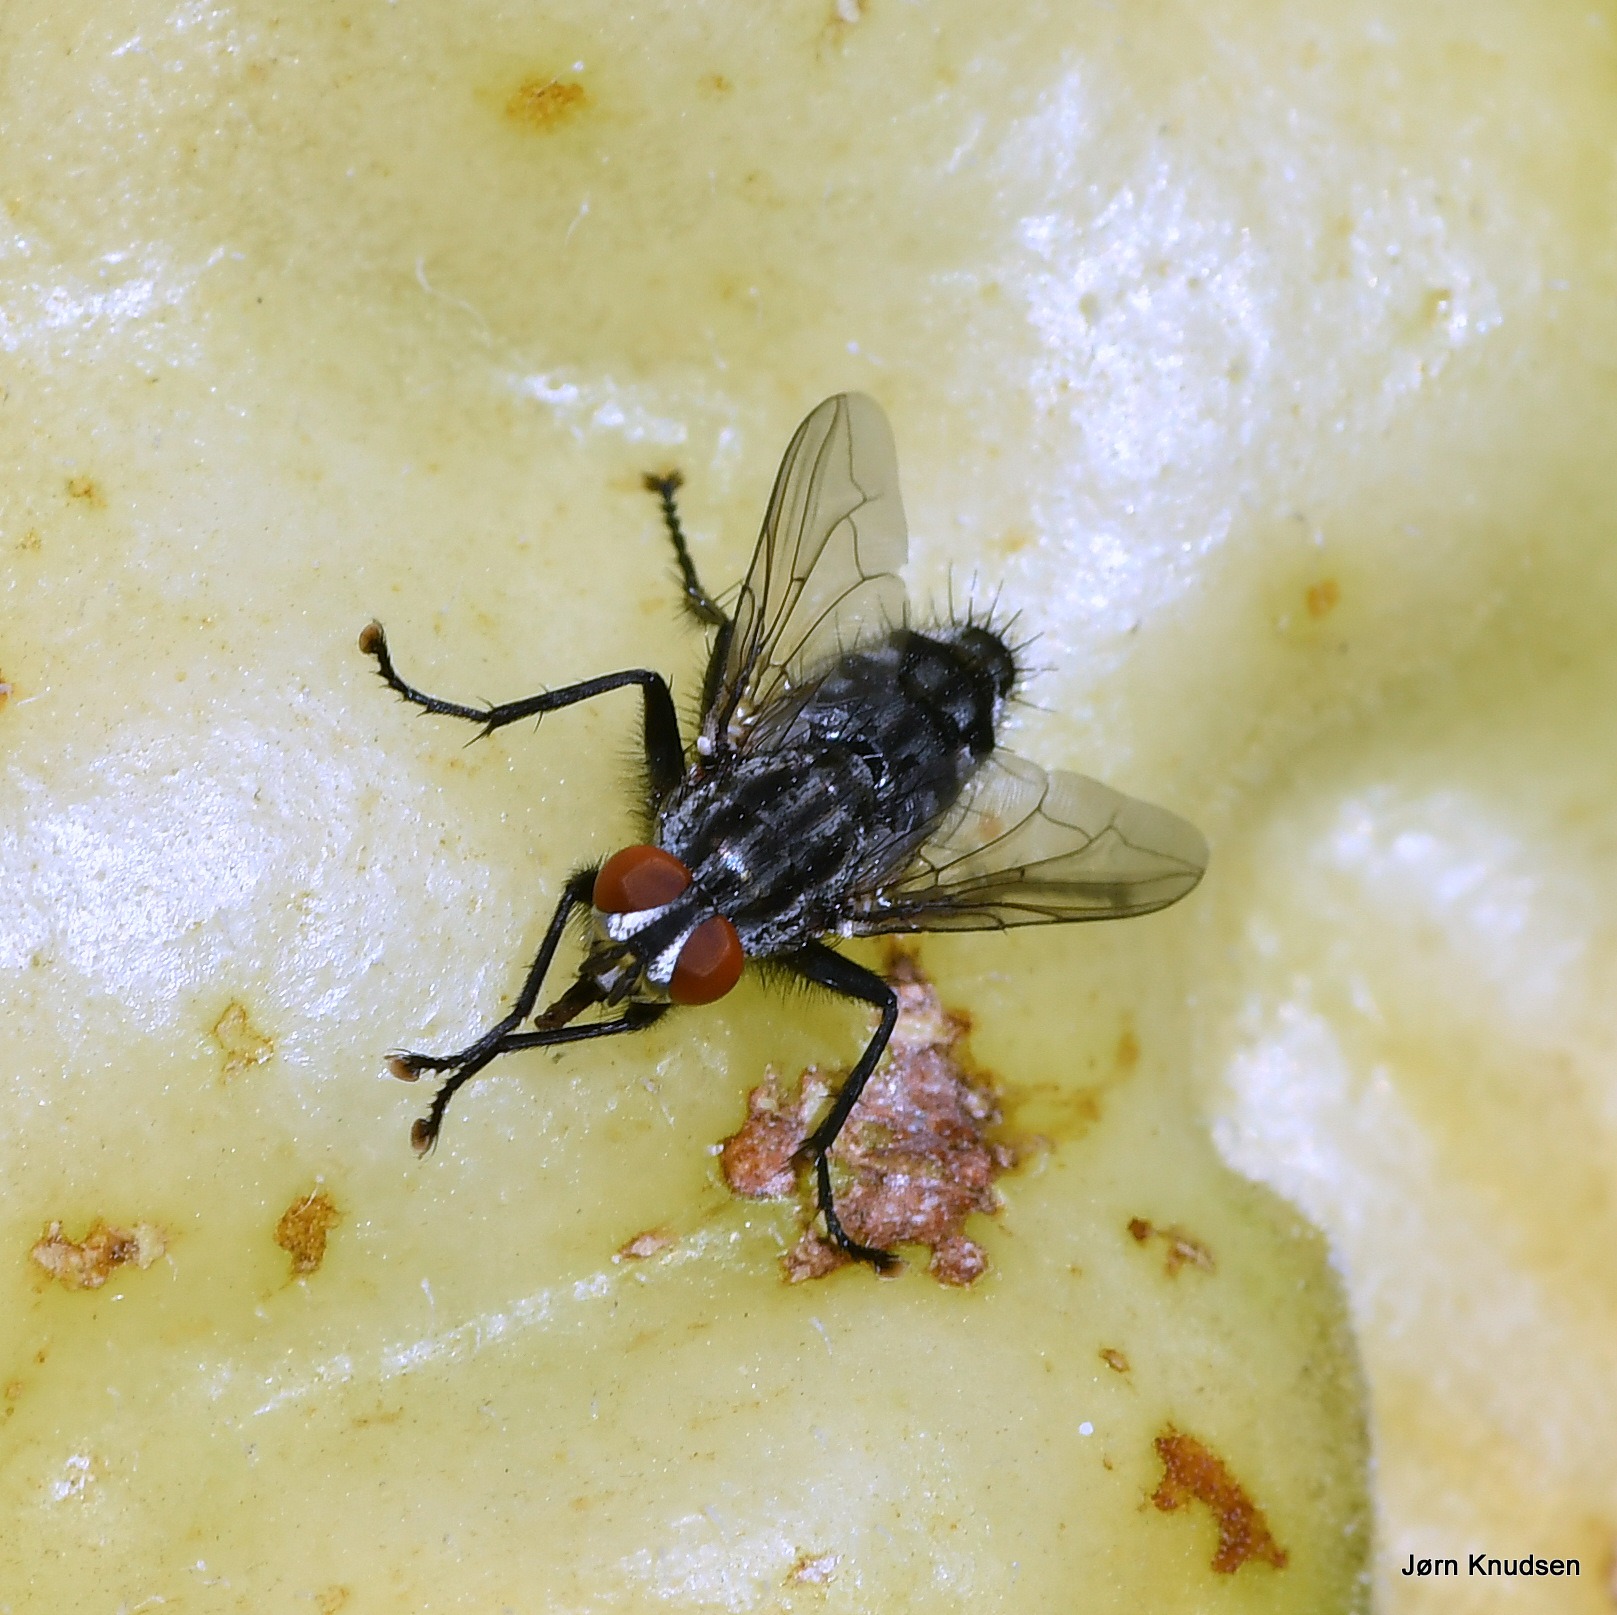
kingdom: Animalia
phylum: Arthropoda
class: Insecta
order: Diptera
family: Sarcophagidae
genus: Sarcophaga
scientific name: Sarcophaga
